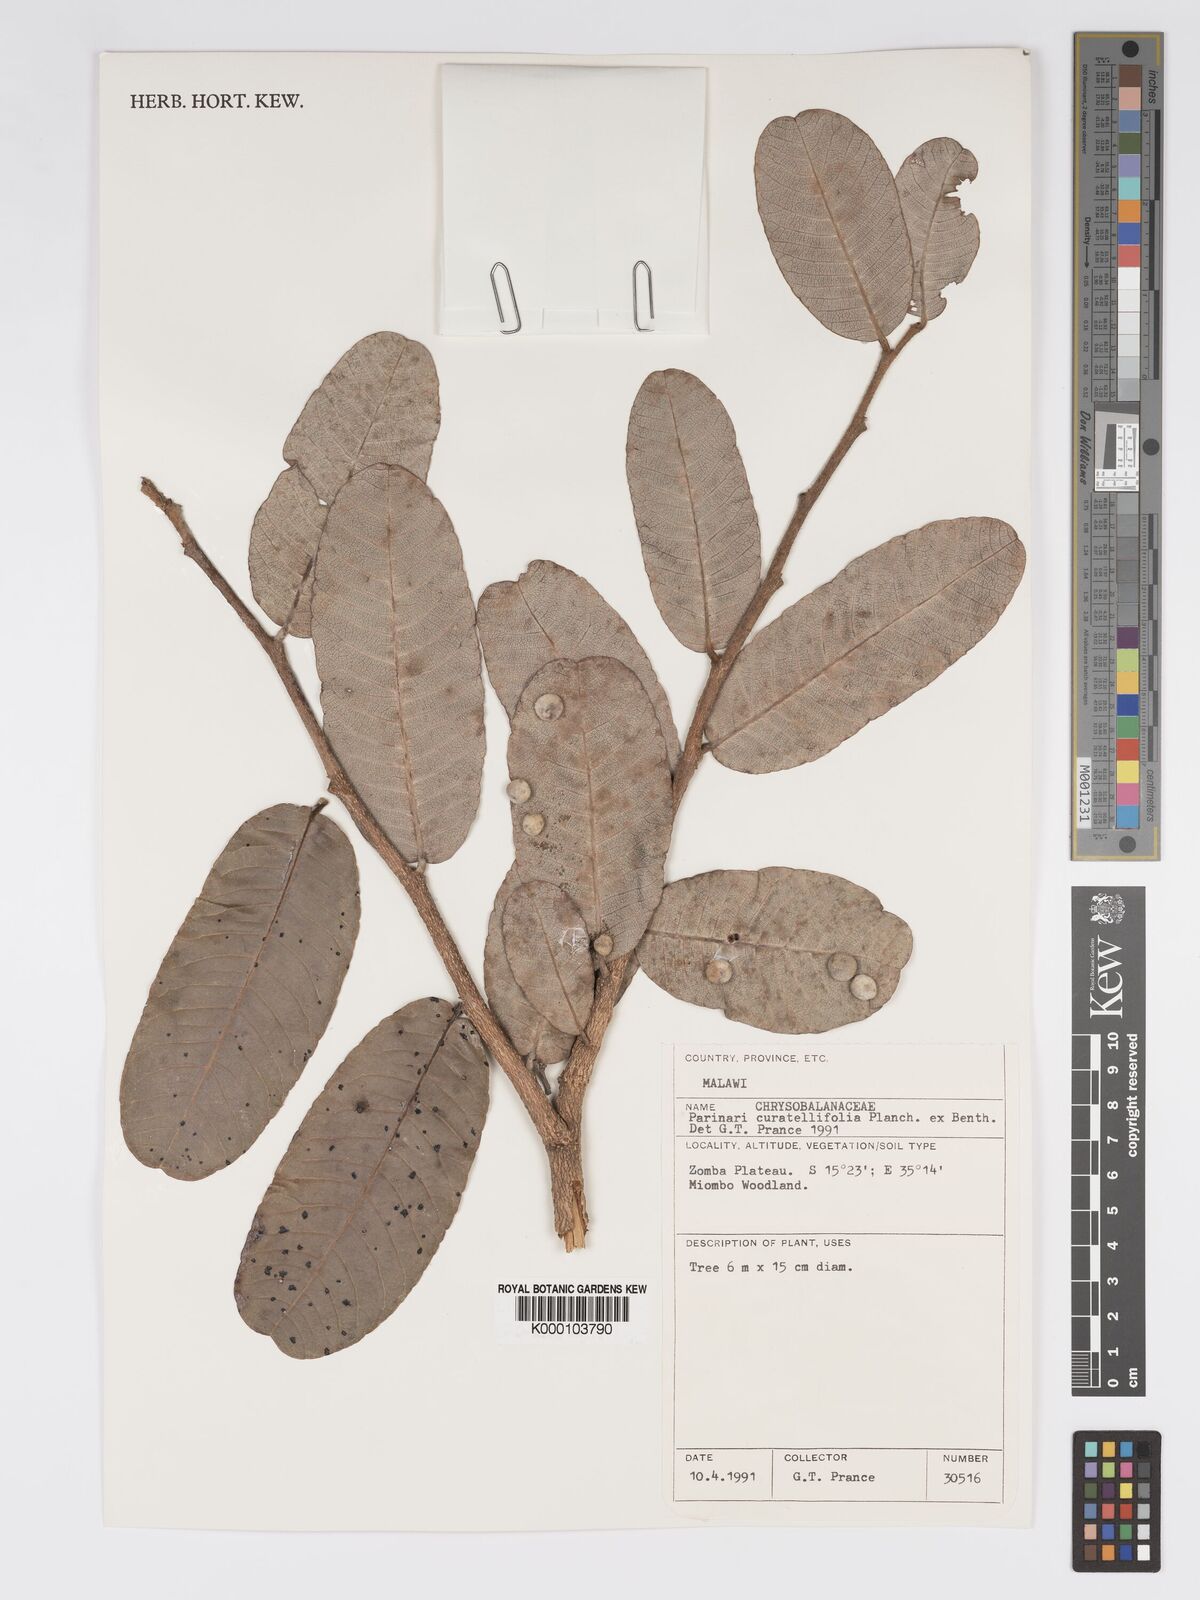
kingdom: Plantae
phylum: Tracheophyta
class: Magnoliopsida
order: Malpighiales
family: Chrysobalanaceae
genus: Parinari
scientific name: Parinari curatellifolia
